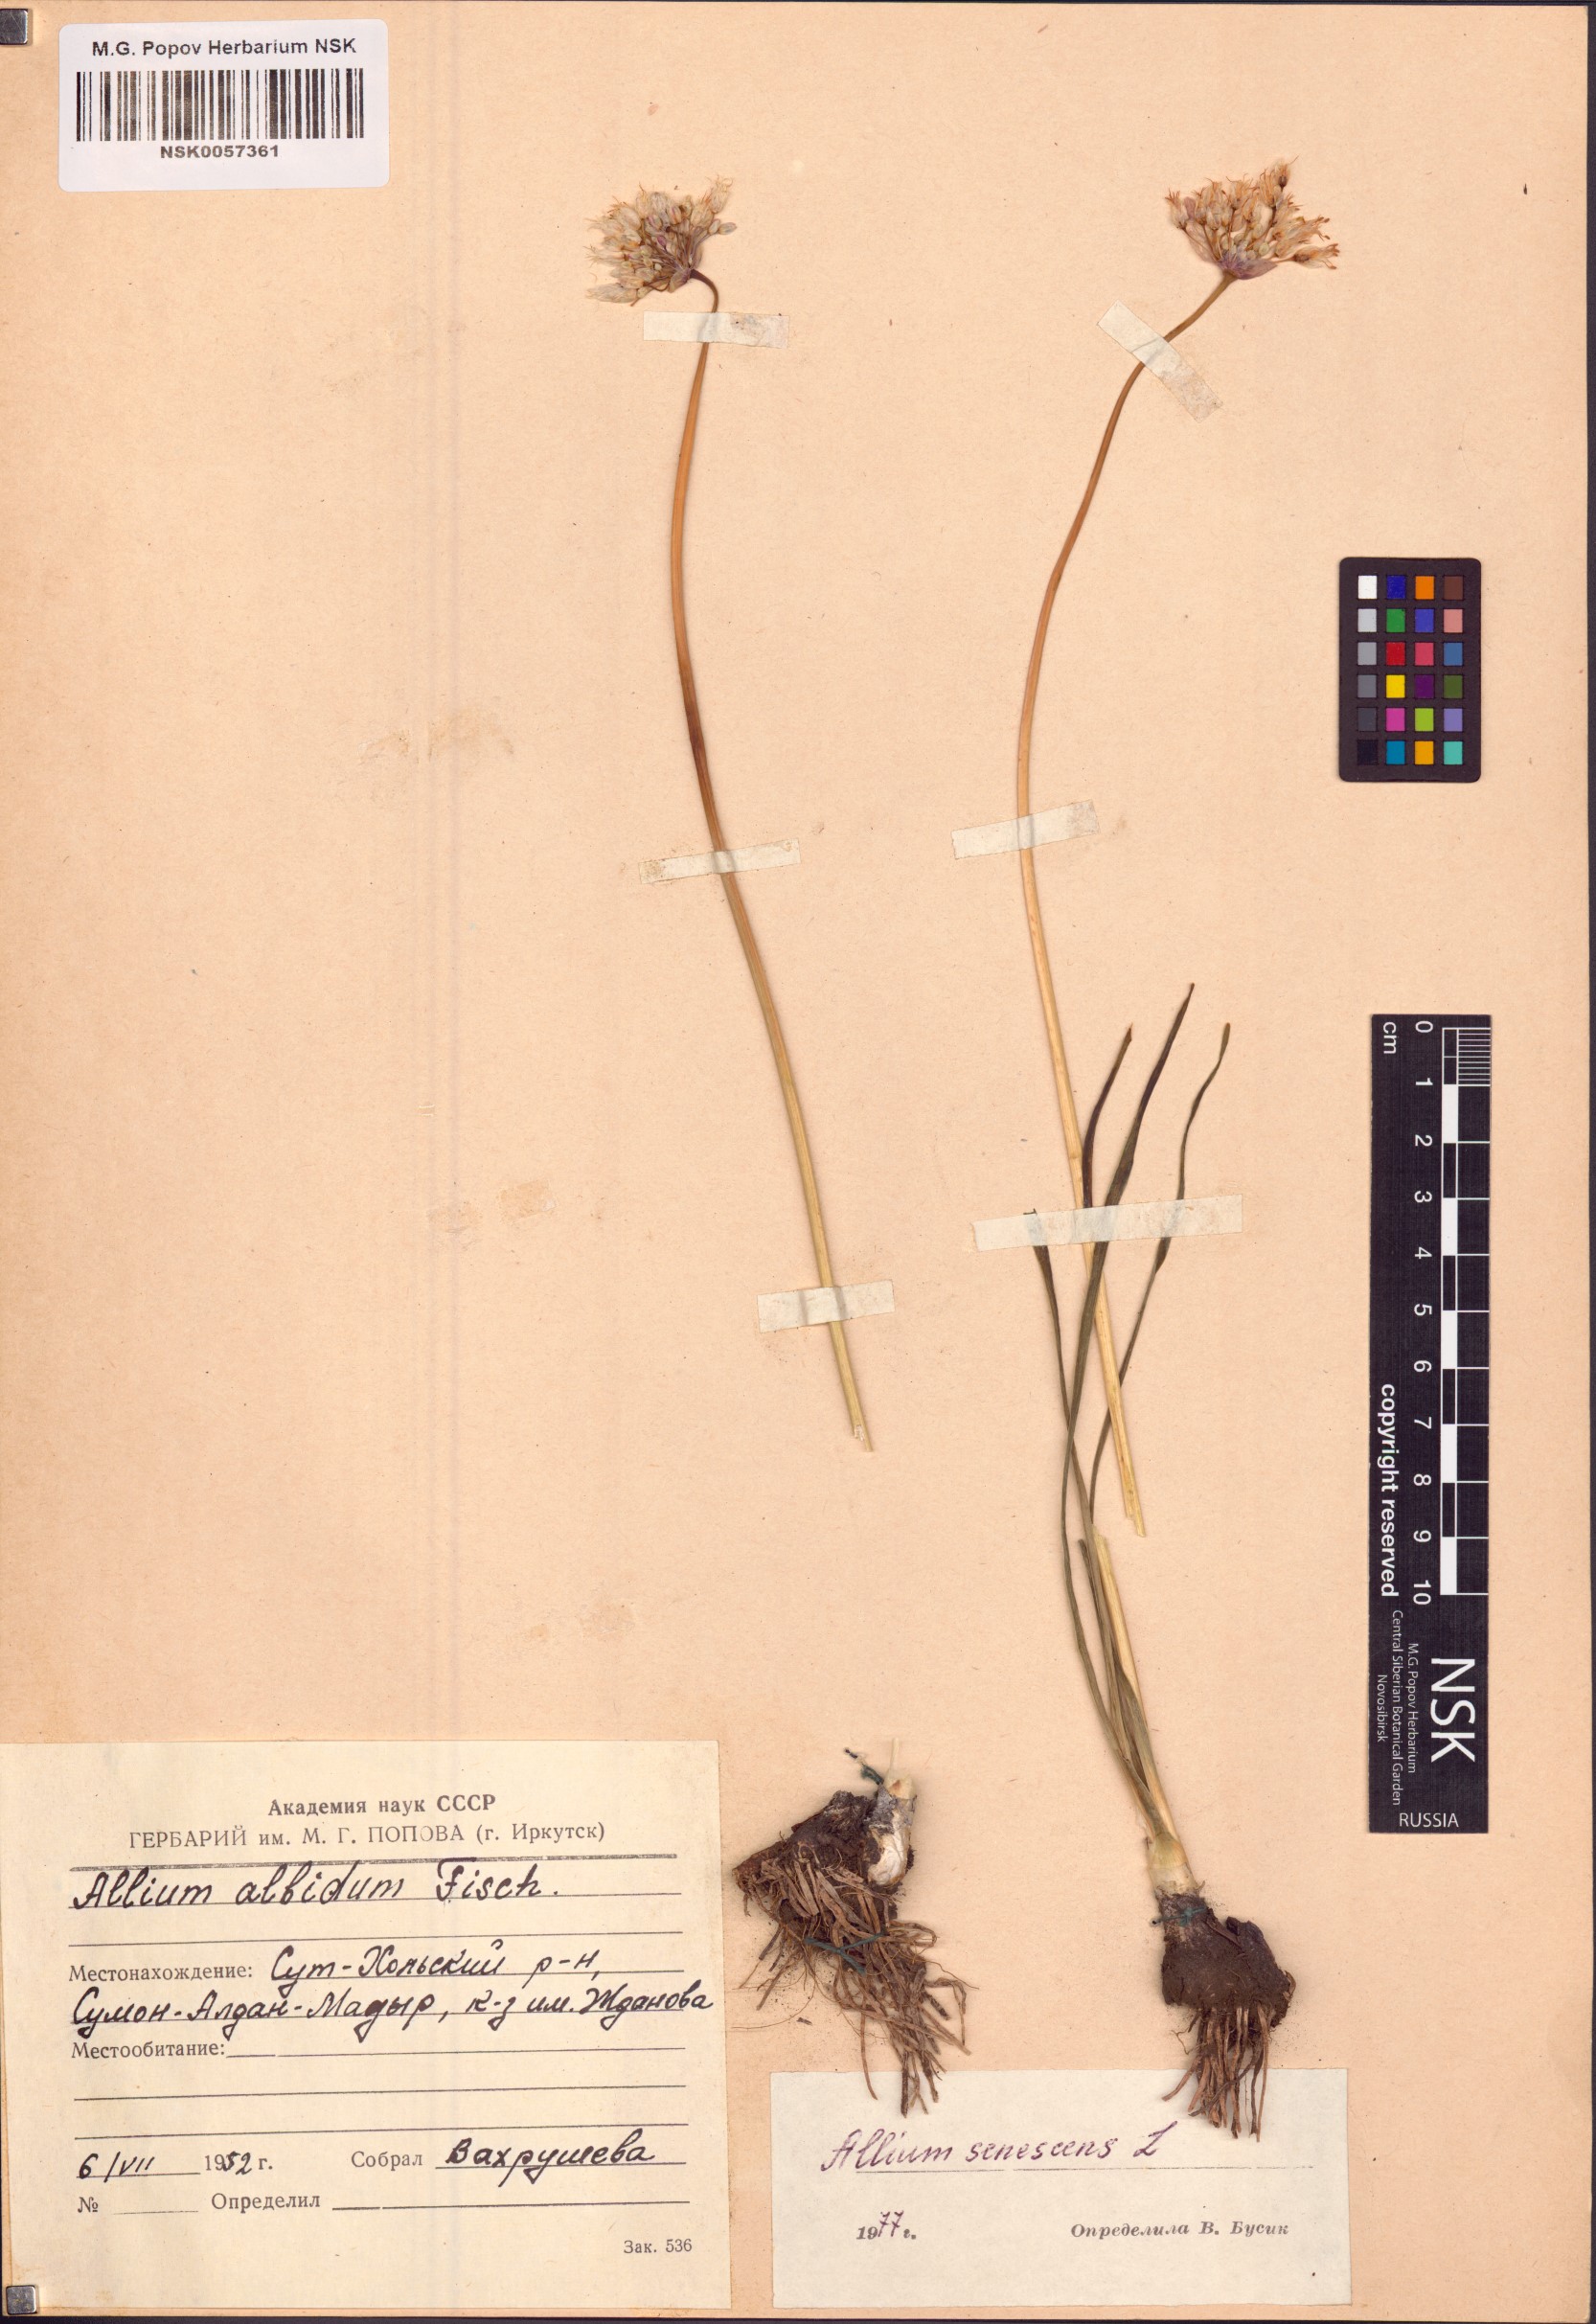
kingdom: Plantae
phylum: Tracheophyta
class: Liliopsida
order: Asparagales
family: Amaryllidaceae
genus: Allium
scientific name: Allium senescens
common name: German garlic
